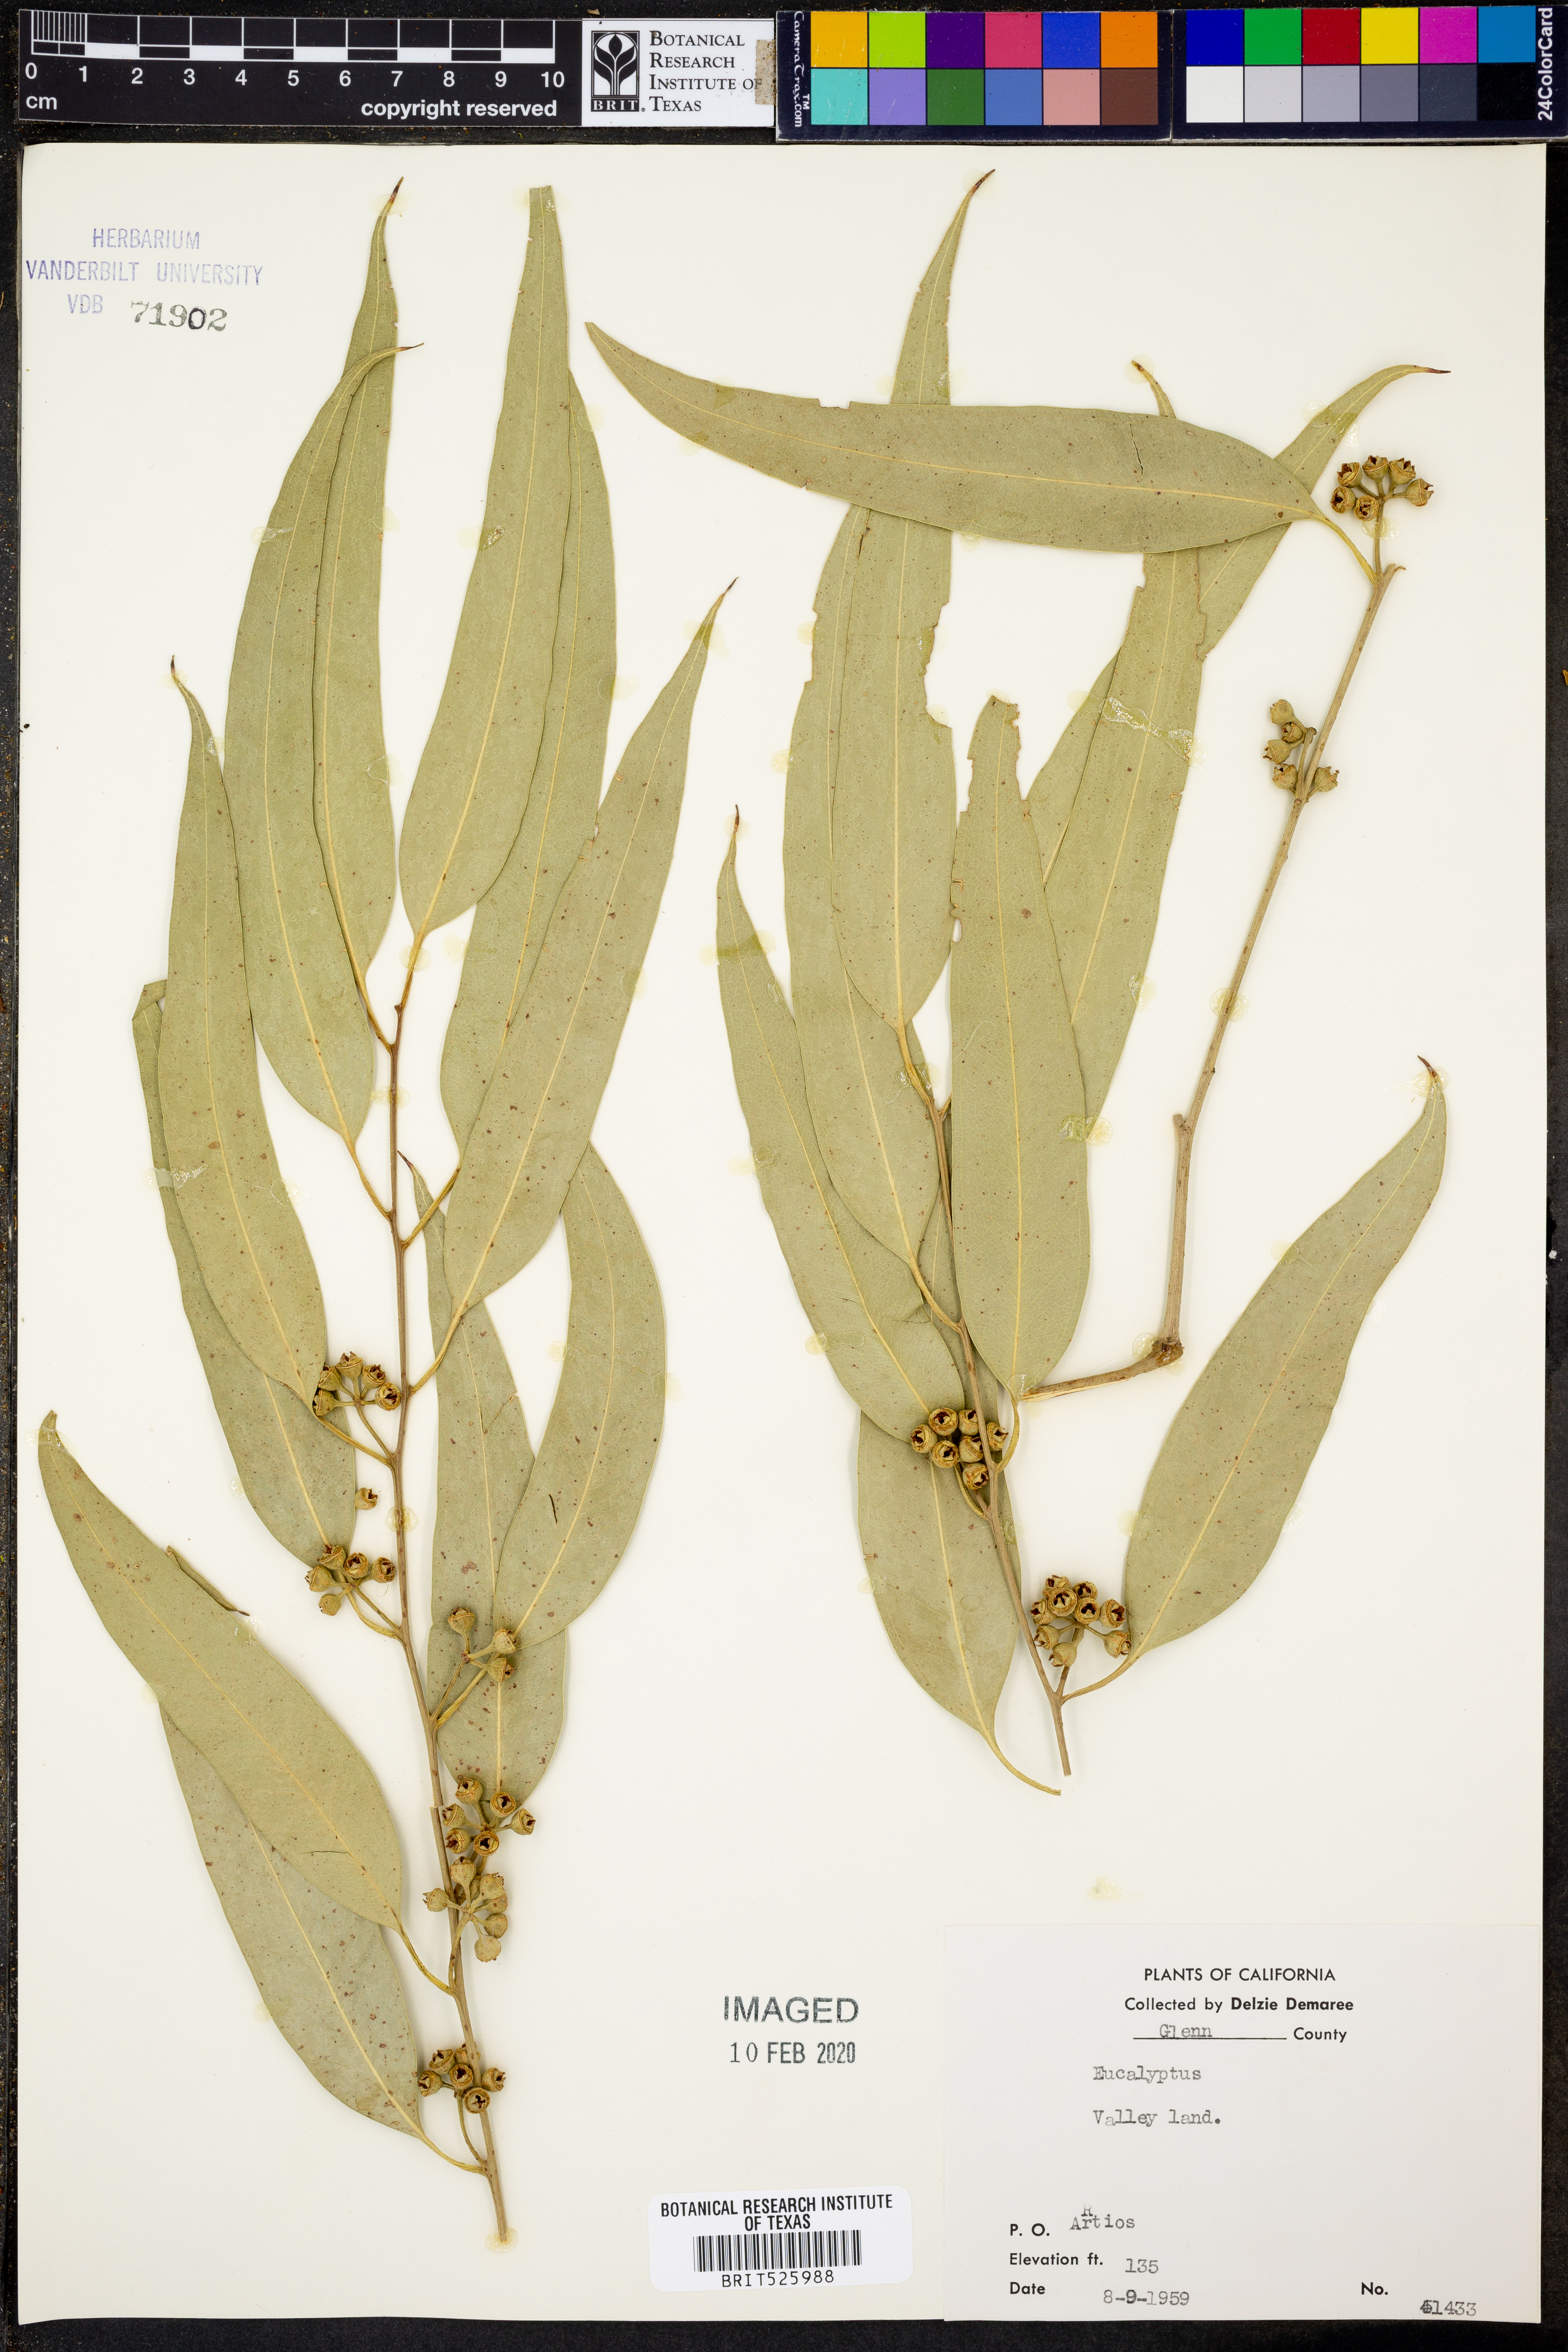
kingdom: Plantae
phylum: Tracheophyta
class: Magnoliopsida
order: Myrtales
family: Myrtaceae
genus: Eucalyptus
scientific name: Eucalyptus
